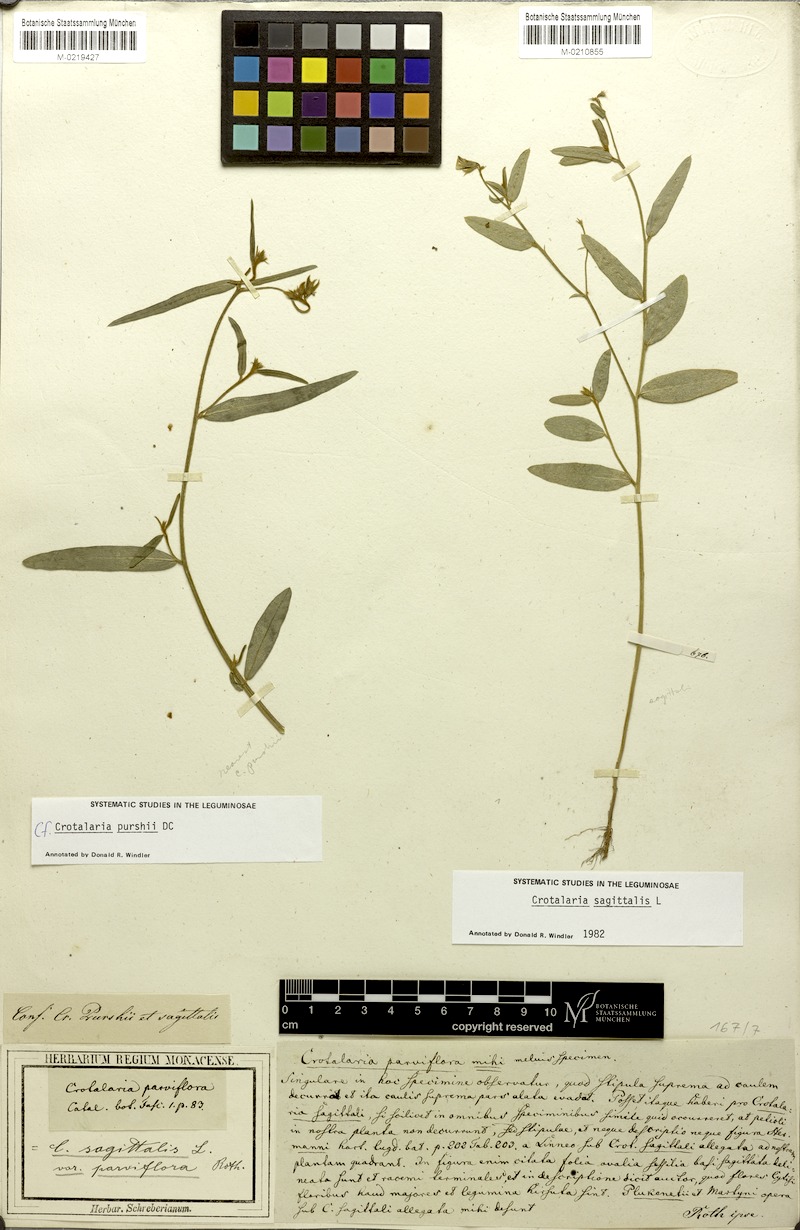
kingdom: Plantae
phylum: Tracheophyta
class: Magnoliopsida
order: Fabales
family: Fabaceae
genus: Crotalaria
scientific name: Crotalaria purshii
